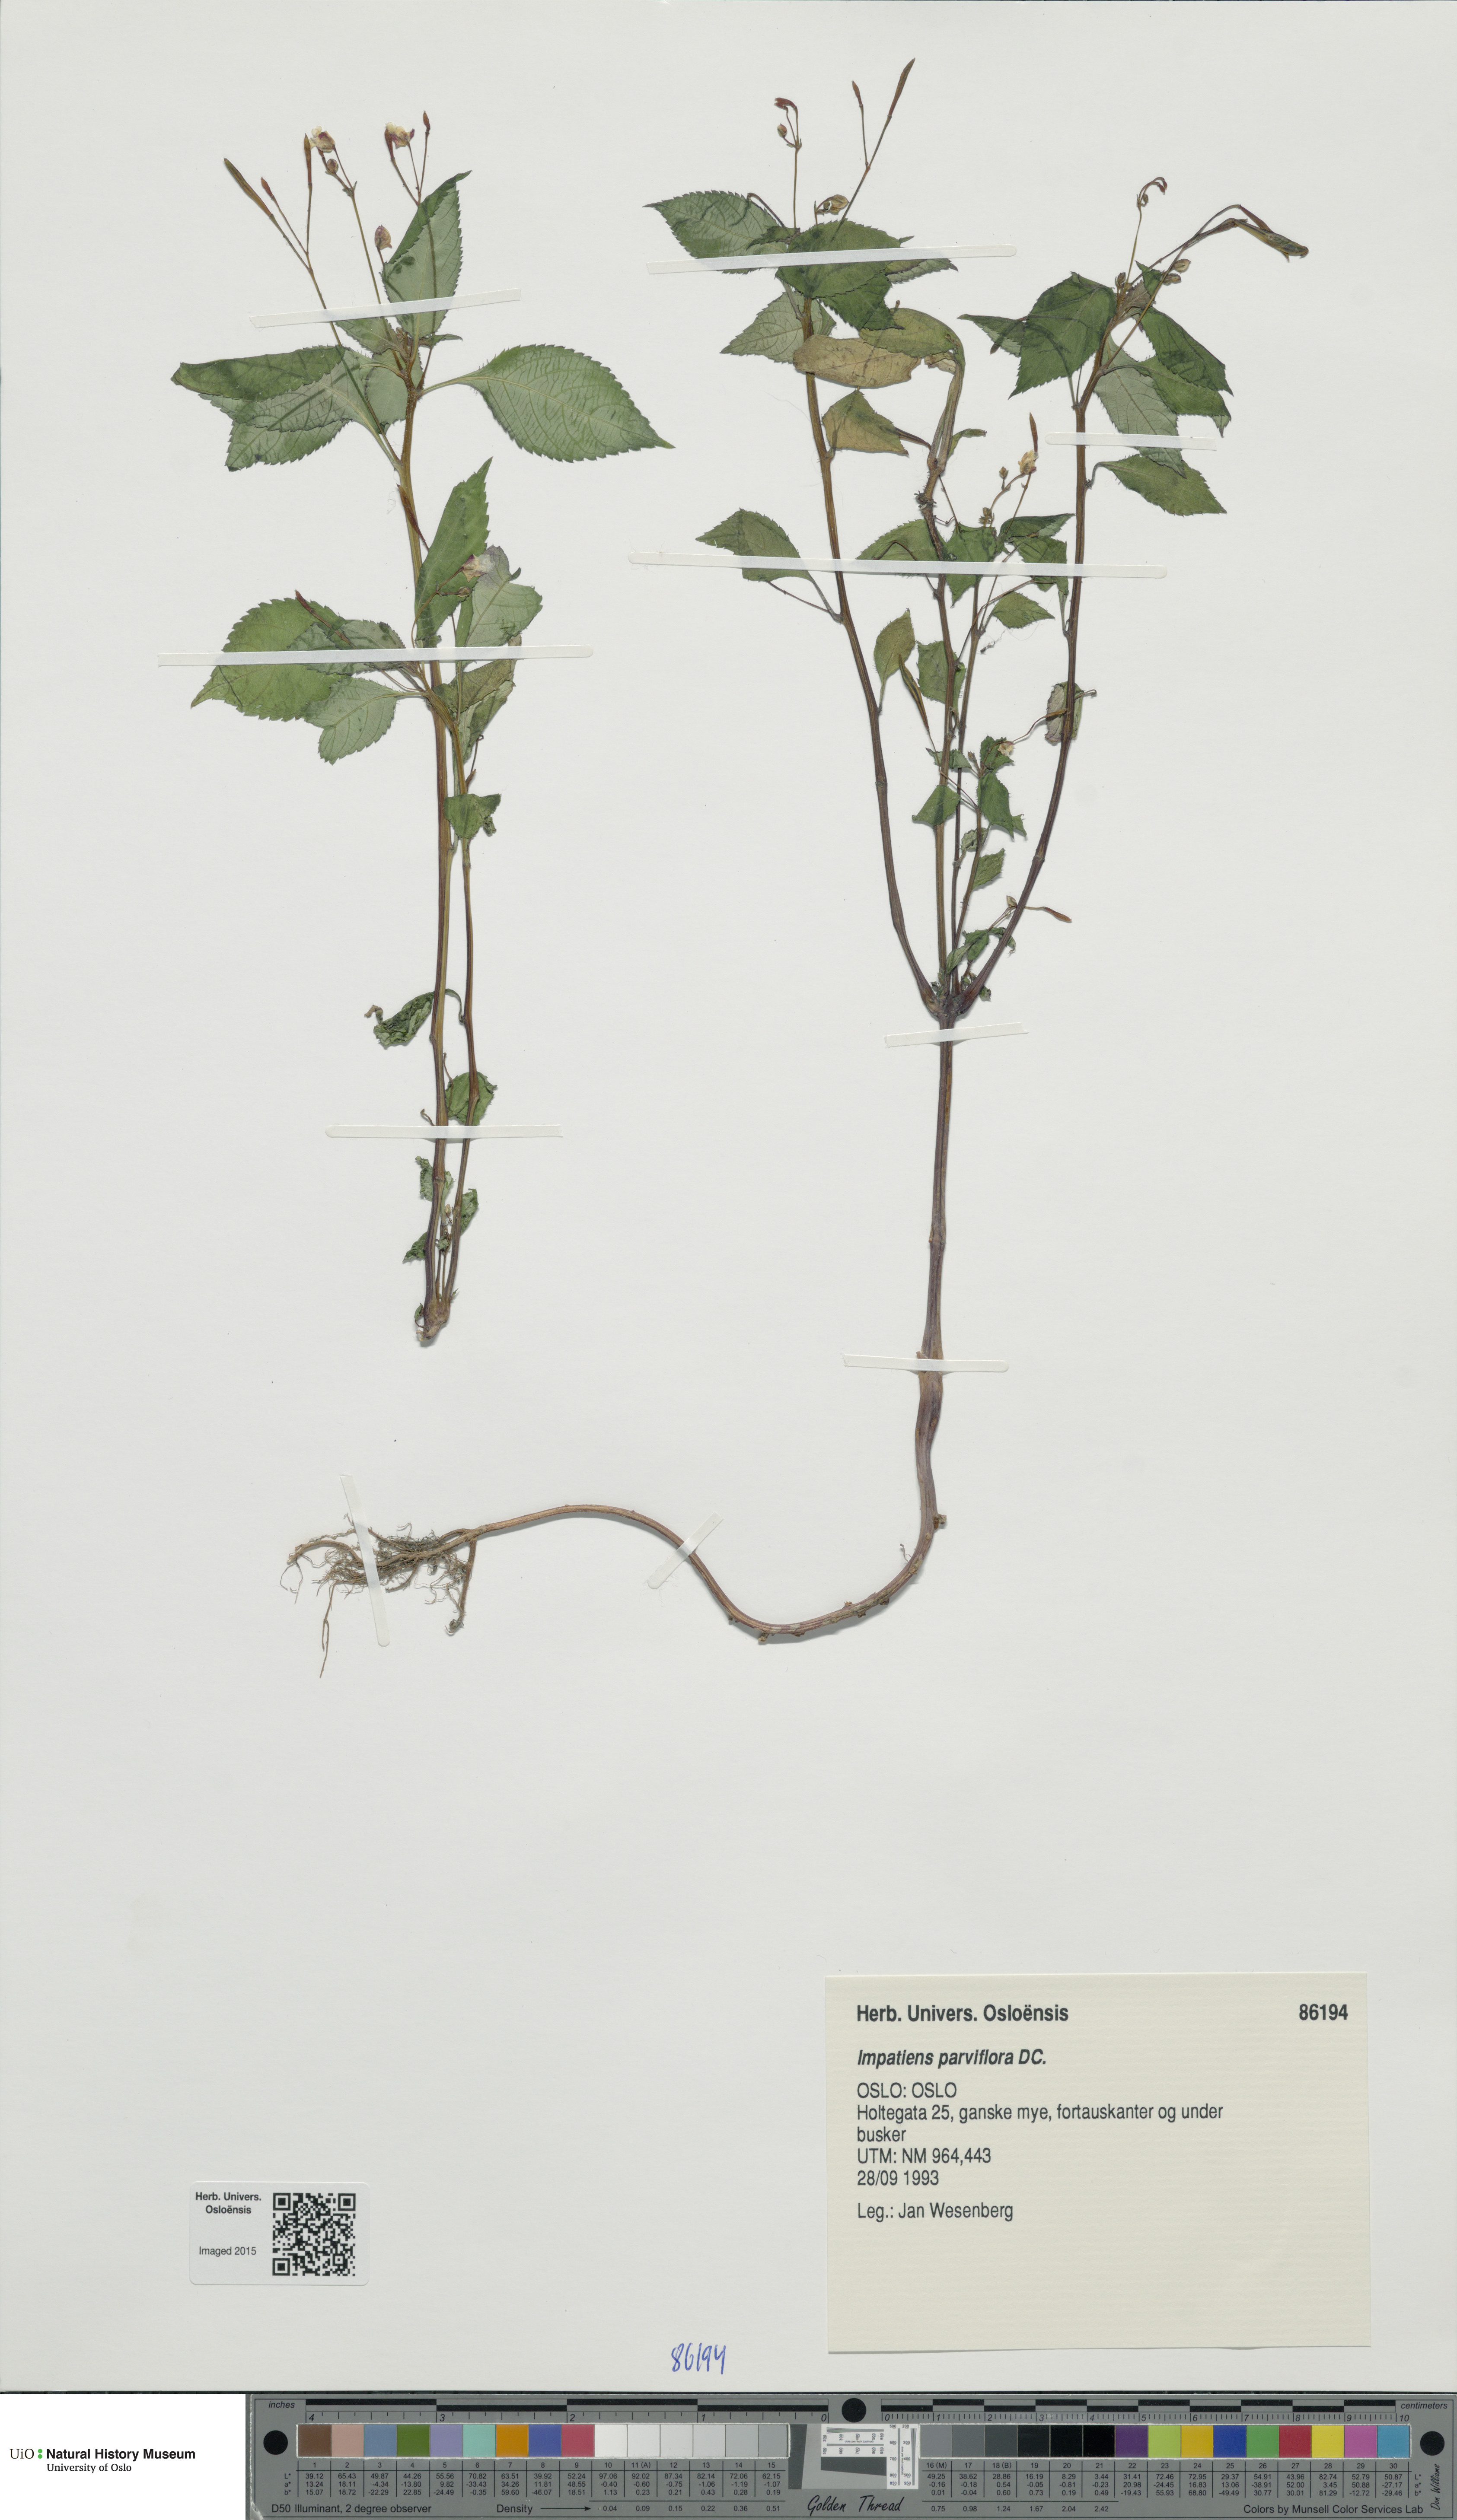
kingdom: Plantae
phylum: Tracheophyta
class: Magnoliopsida
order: Ericales
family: Balsaminaceae
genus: Impatiens
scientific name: Impatiens parviflora
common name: Small balsam
